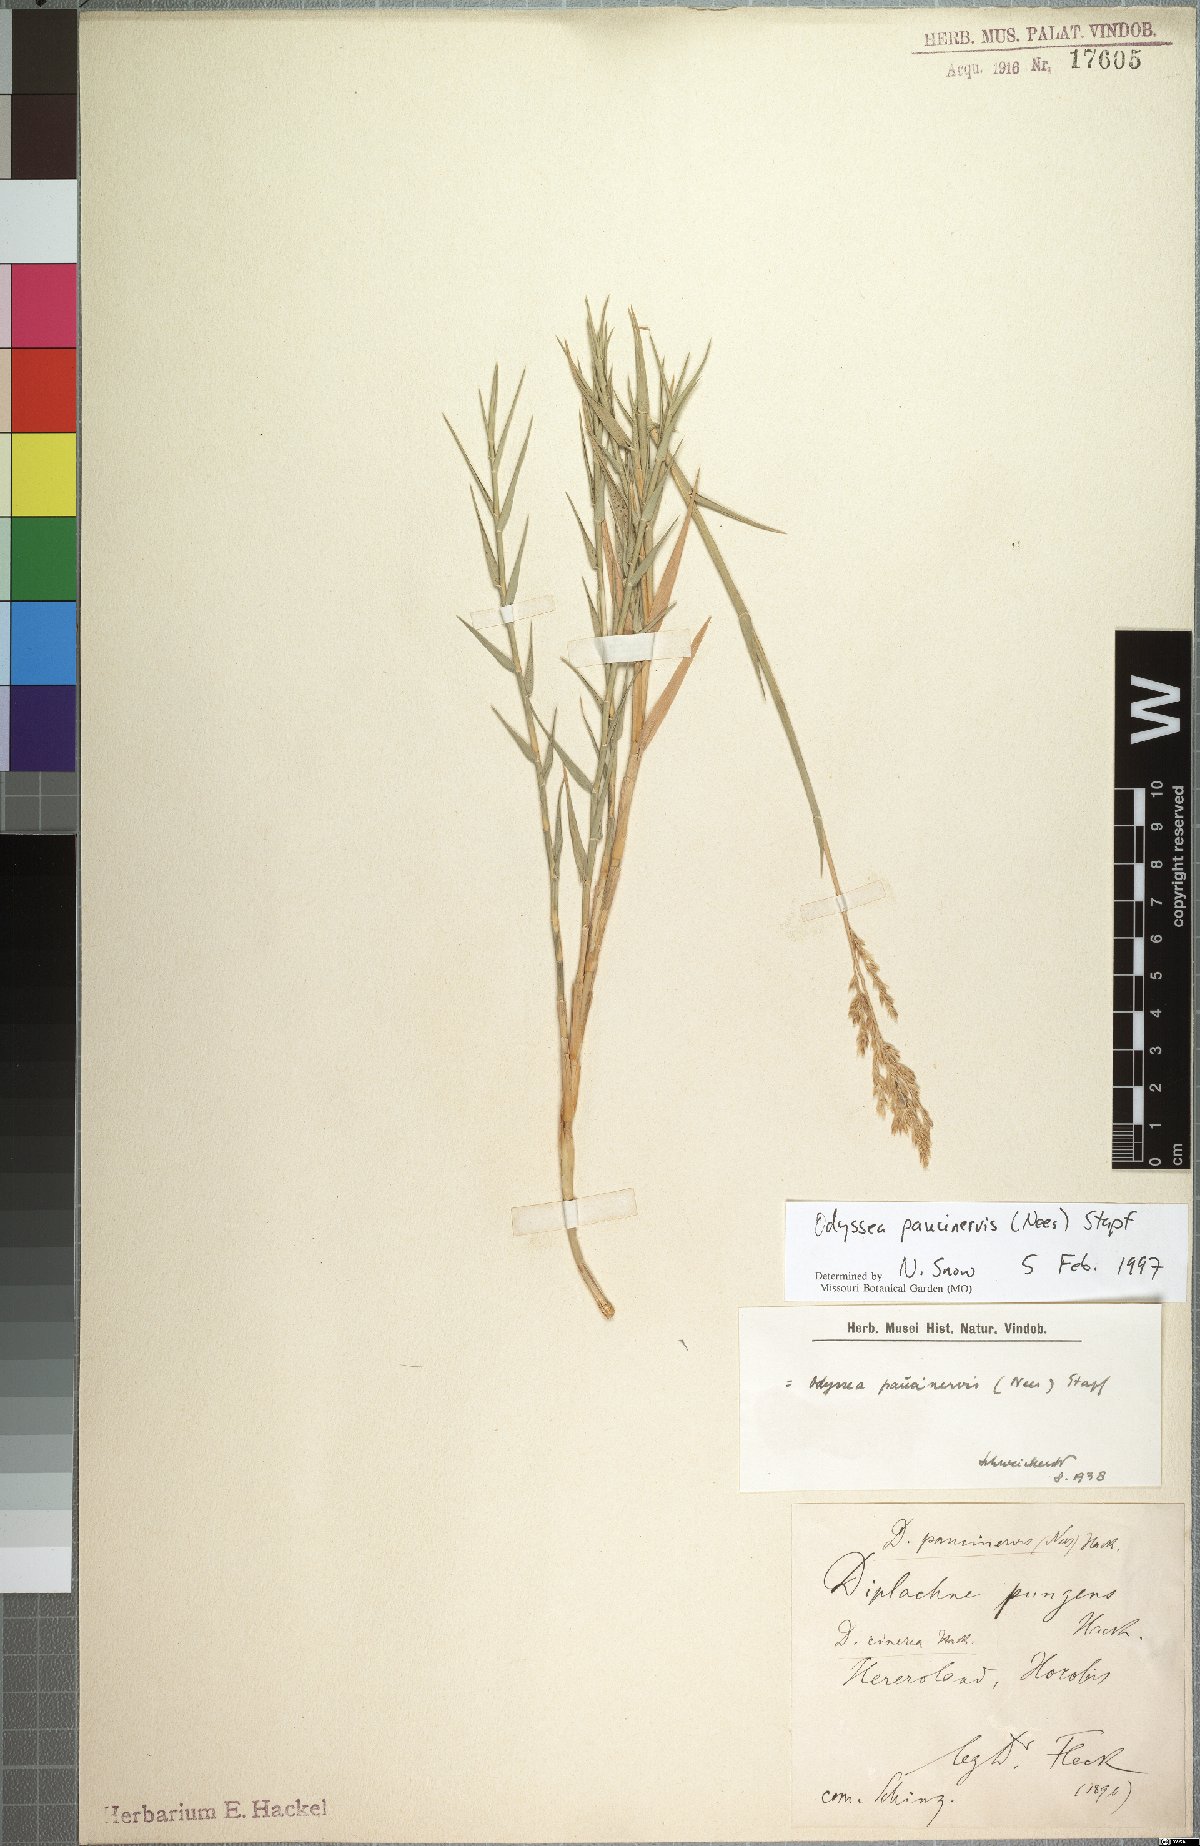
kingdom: Plantae
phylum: Tracheophyta
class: Liliopsida
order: Poales
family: Poaceae
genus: Odyssea
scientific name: Odyssea paucinervis
